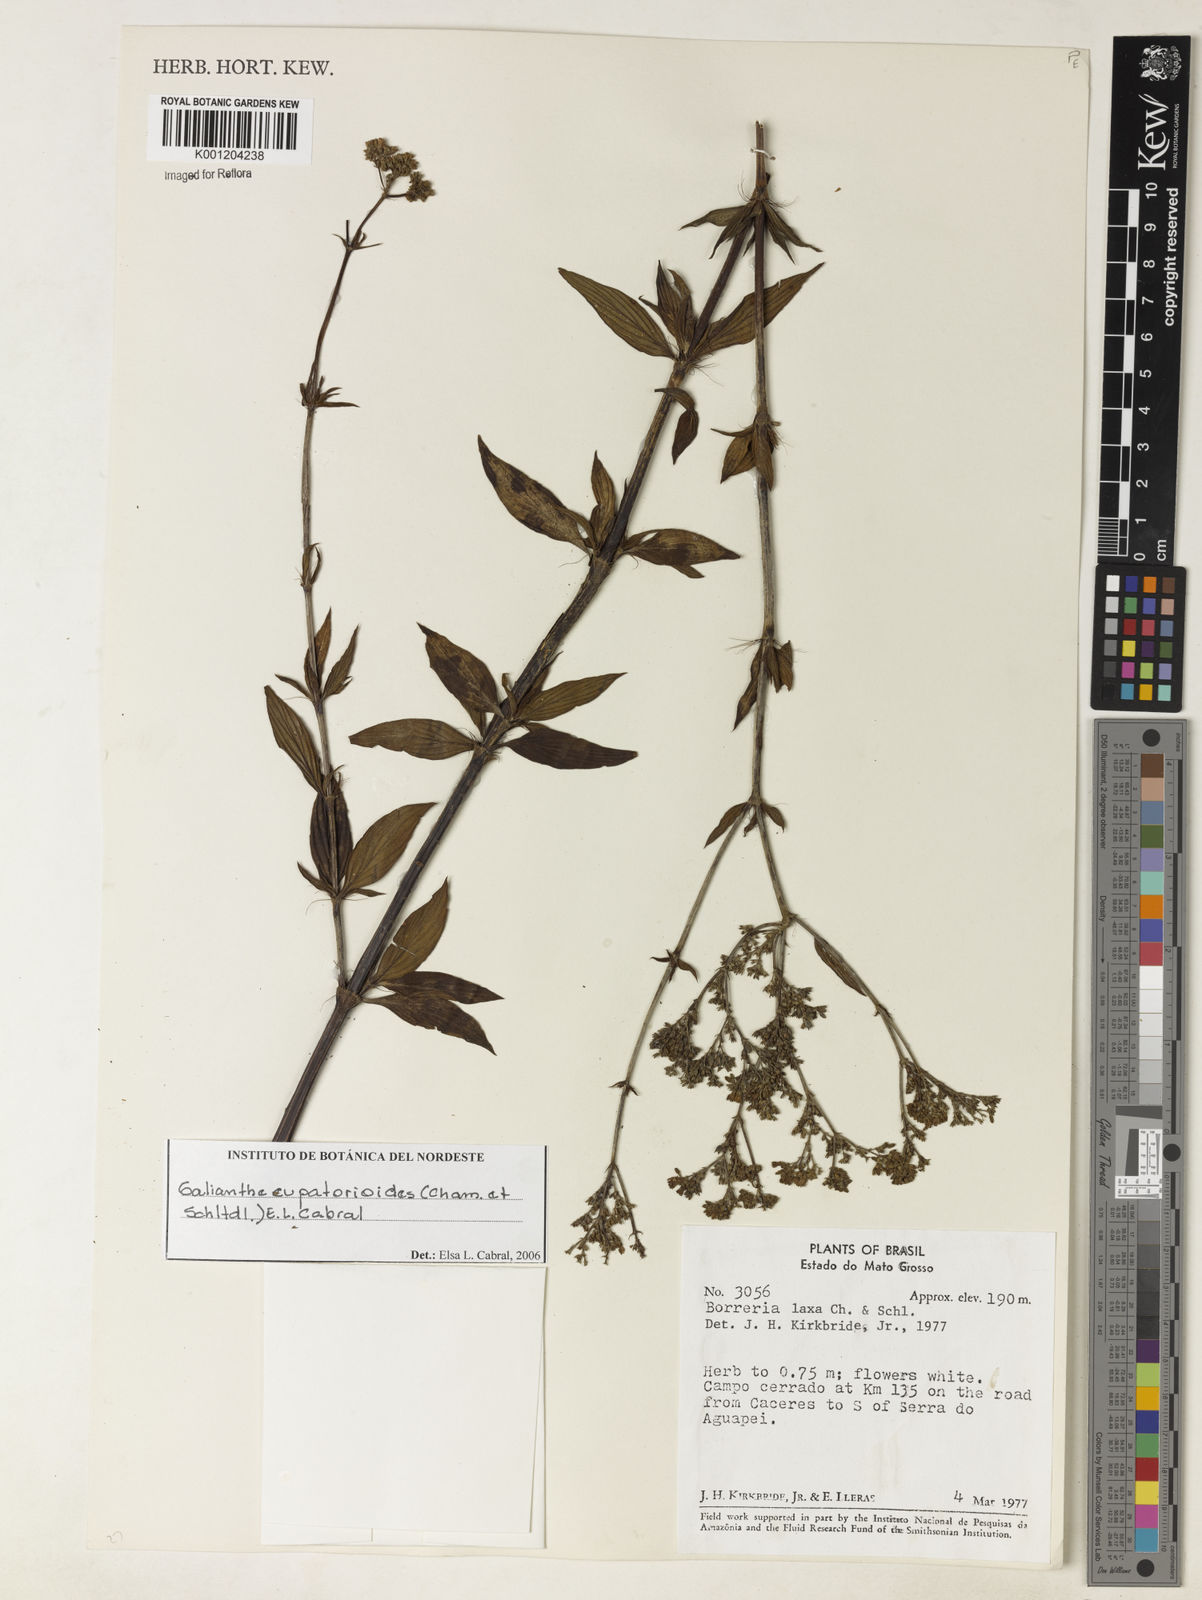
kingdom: Plantae
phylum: Tracheophyta
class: Magnoliopsida
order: Gentianales
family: Rubiaceae
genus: Galianthe
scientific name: Galianthe eupatorioides
